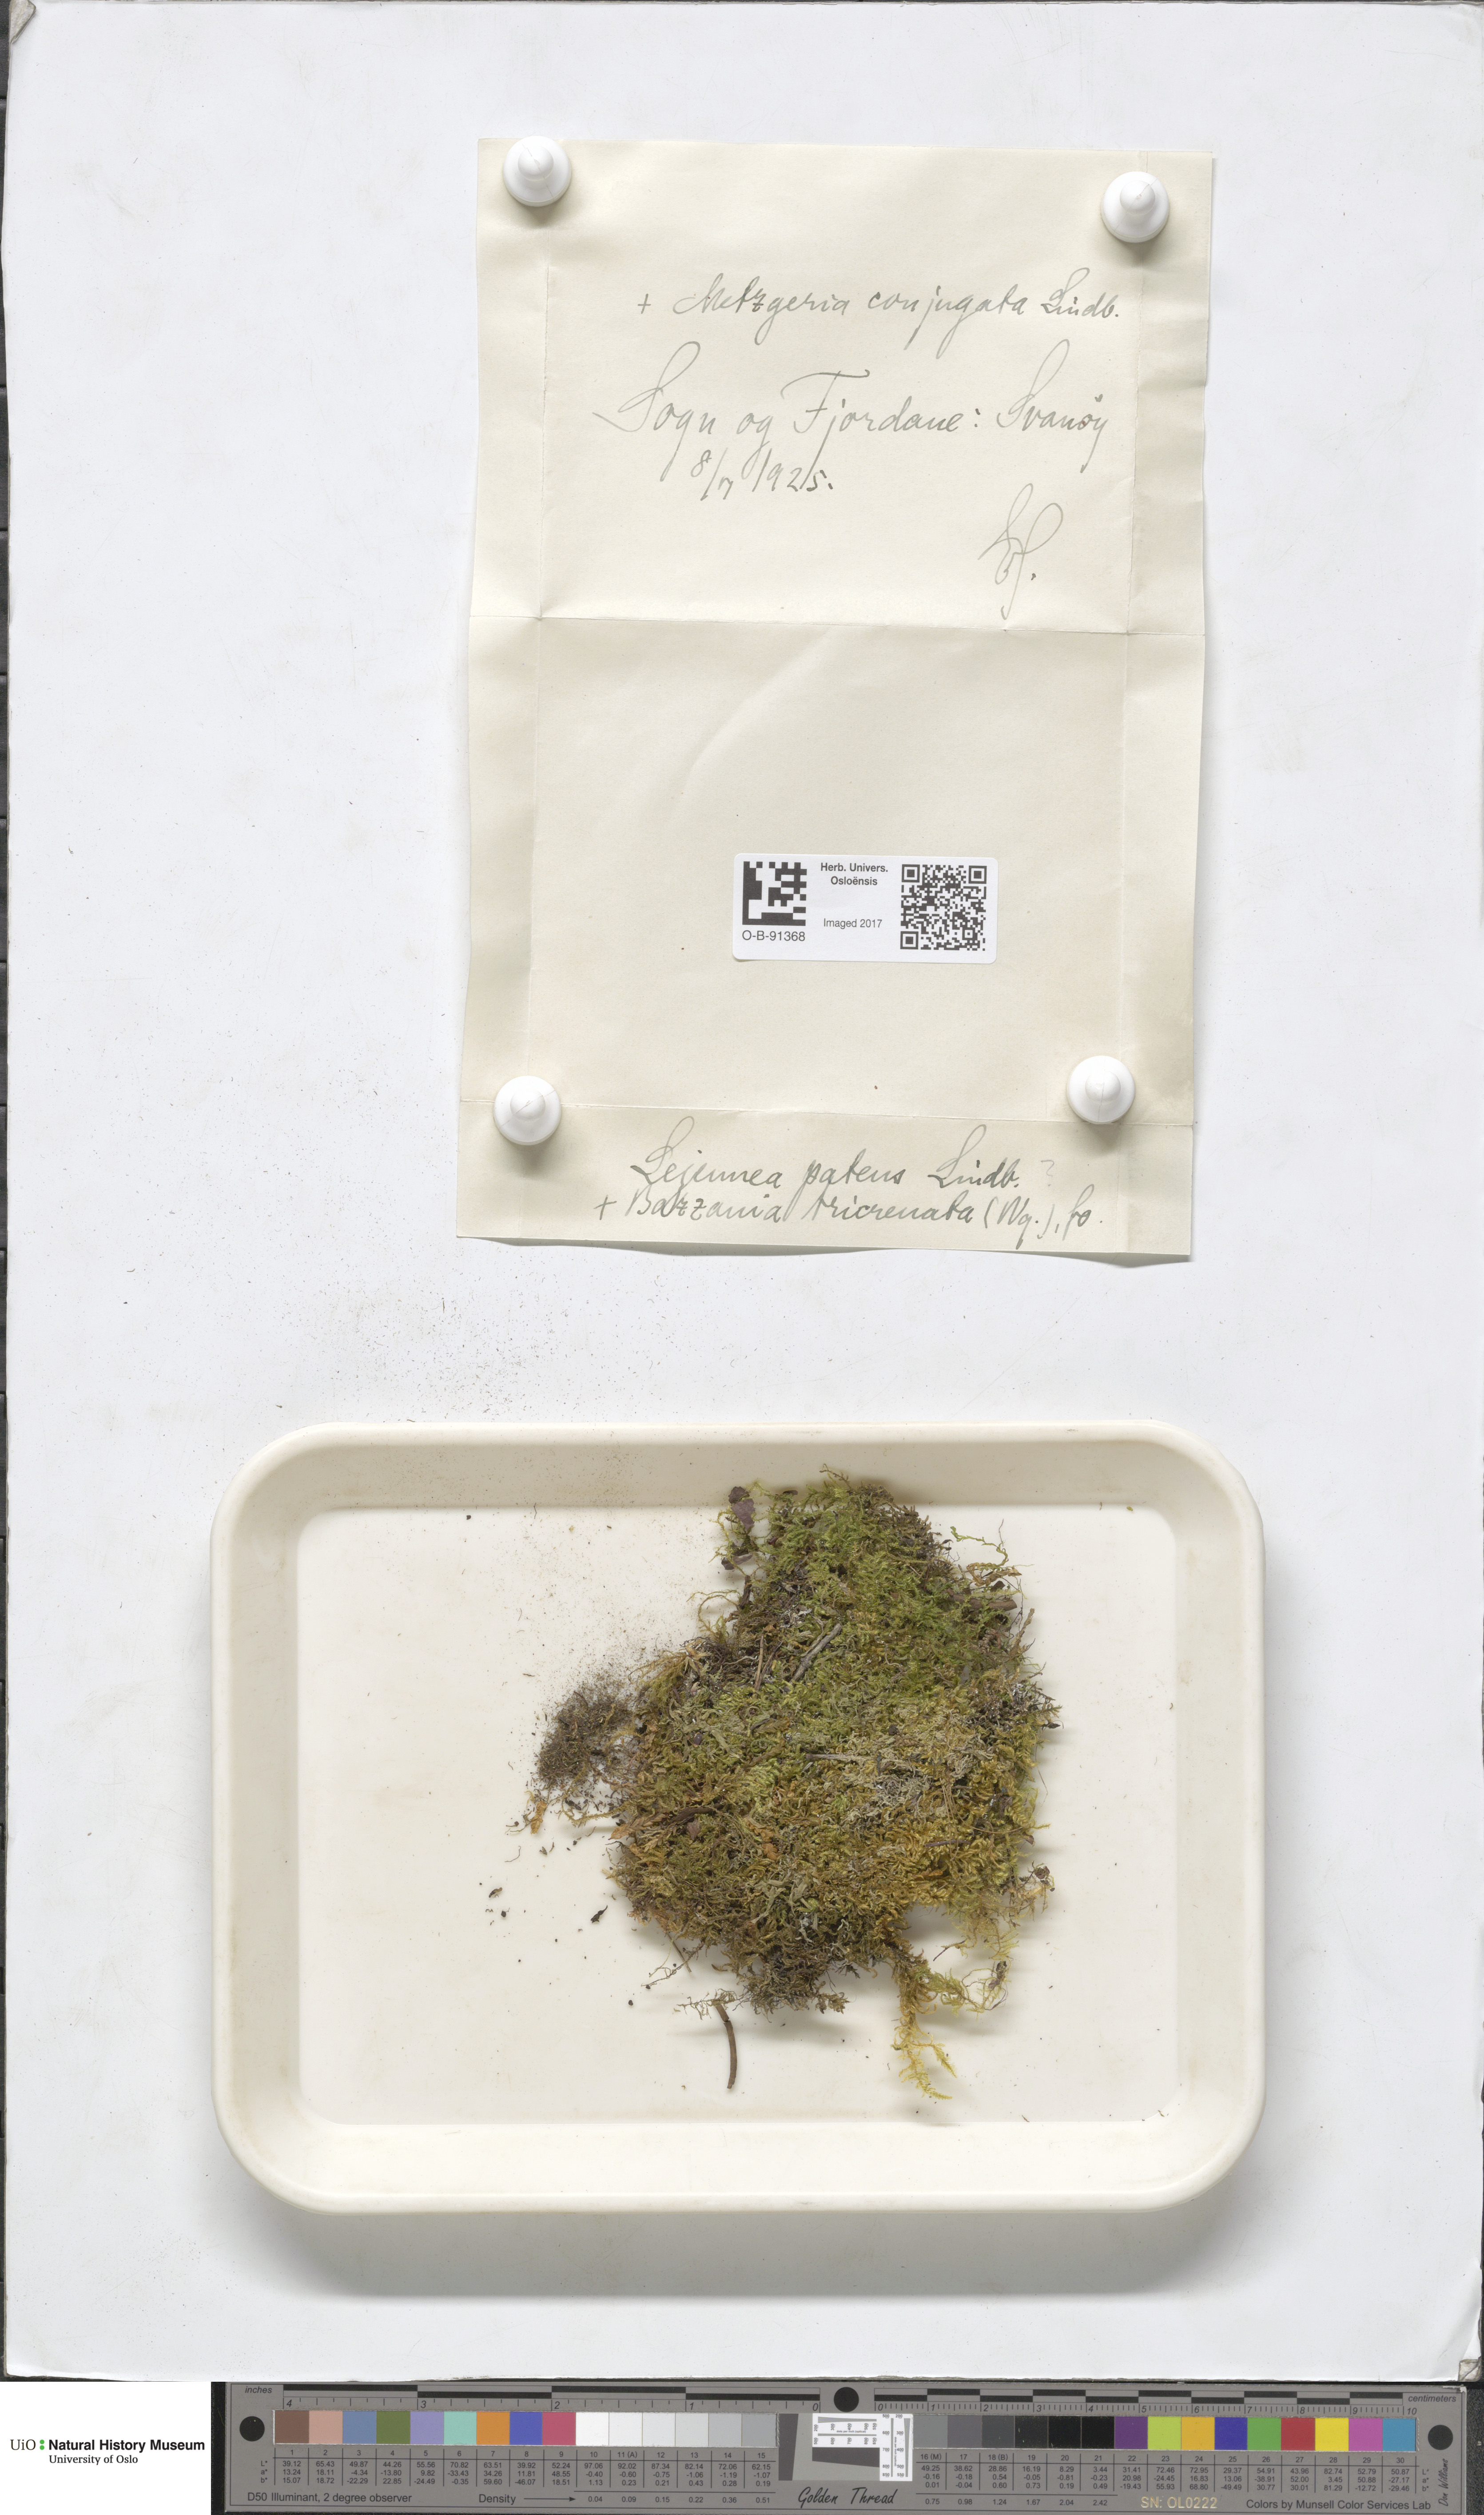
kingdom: Plantae
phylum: Marchantiophyta
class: Jungermanniopsida
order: Porellales
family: Lejeuneaceae
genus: Lejeunea
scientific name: Lejeunea patens
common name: Pearl pouncewort
